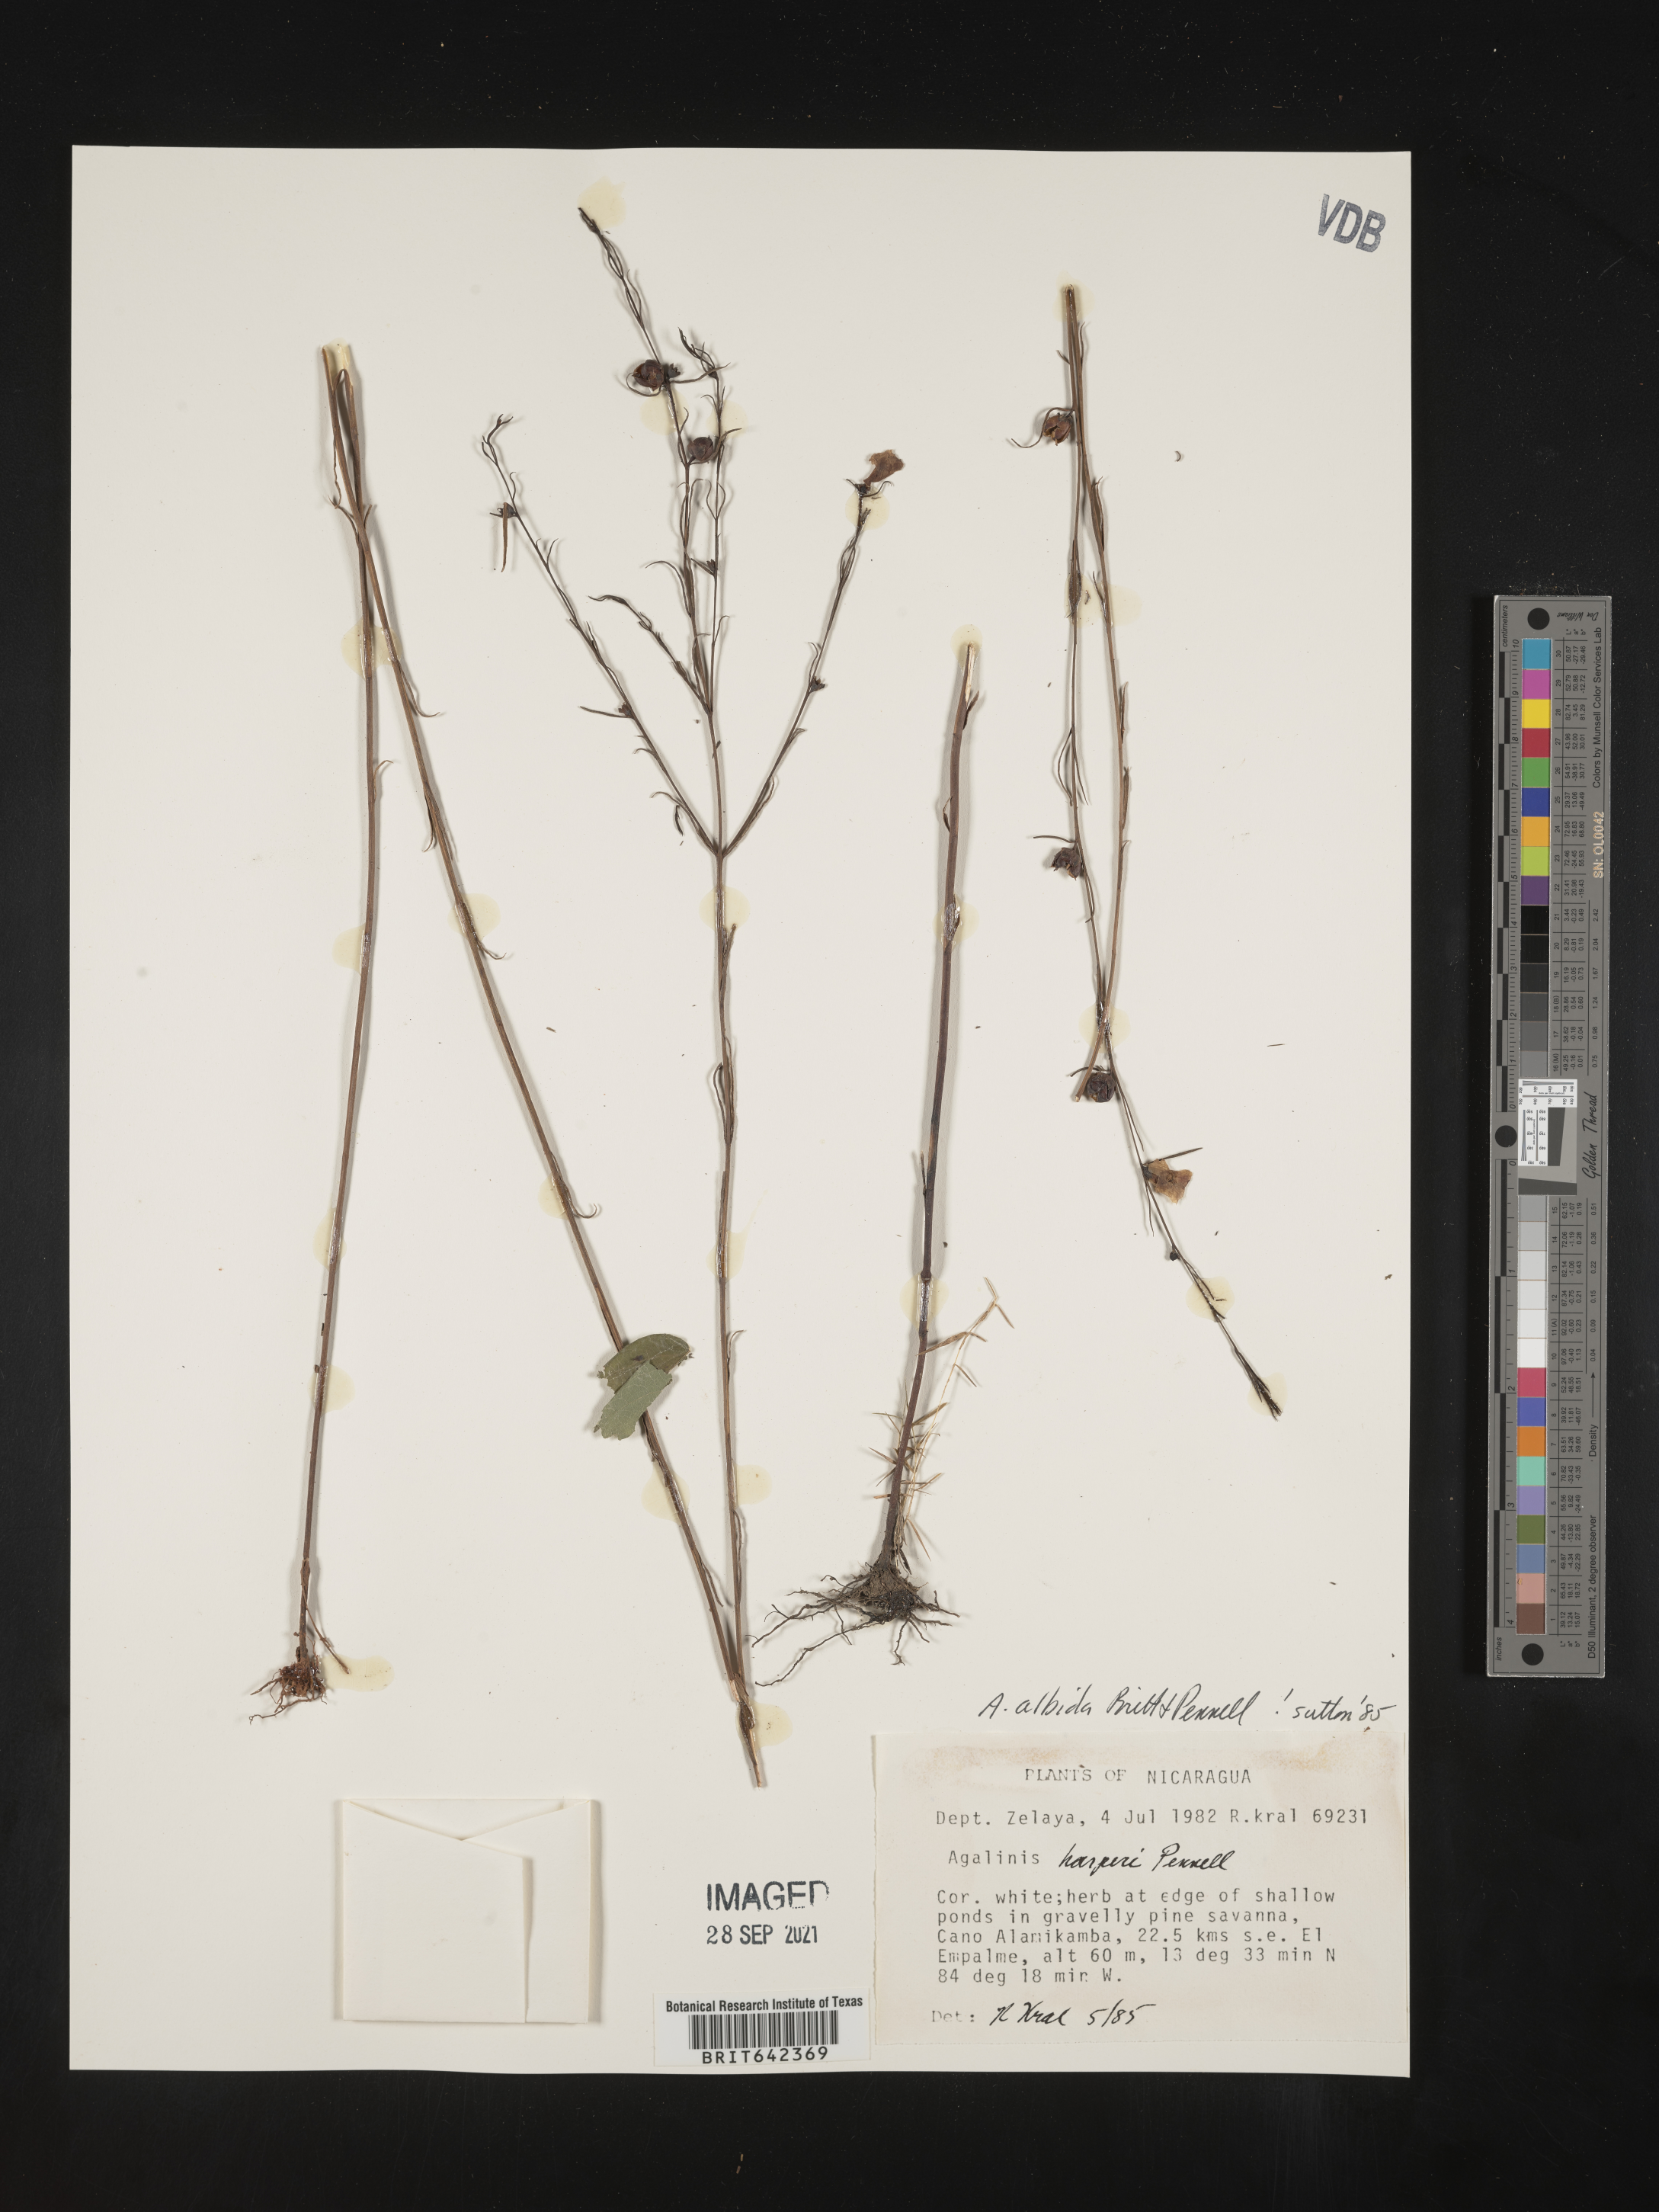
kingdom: Plantae
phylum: Tracheophyta
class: Magnoliopsida
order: Lamiales
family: Orobanchaceae
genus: Agalinis
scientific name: Agalinis
